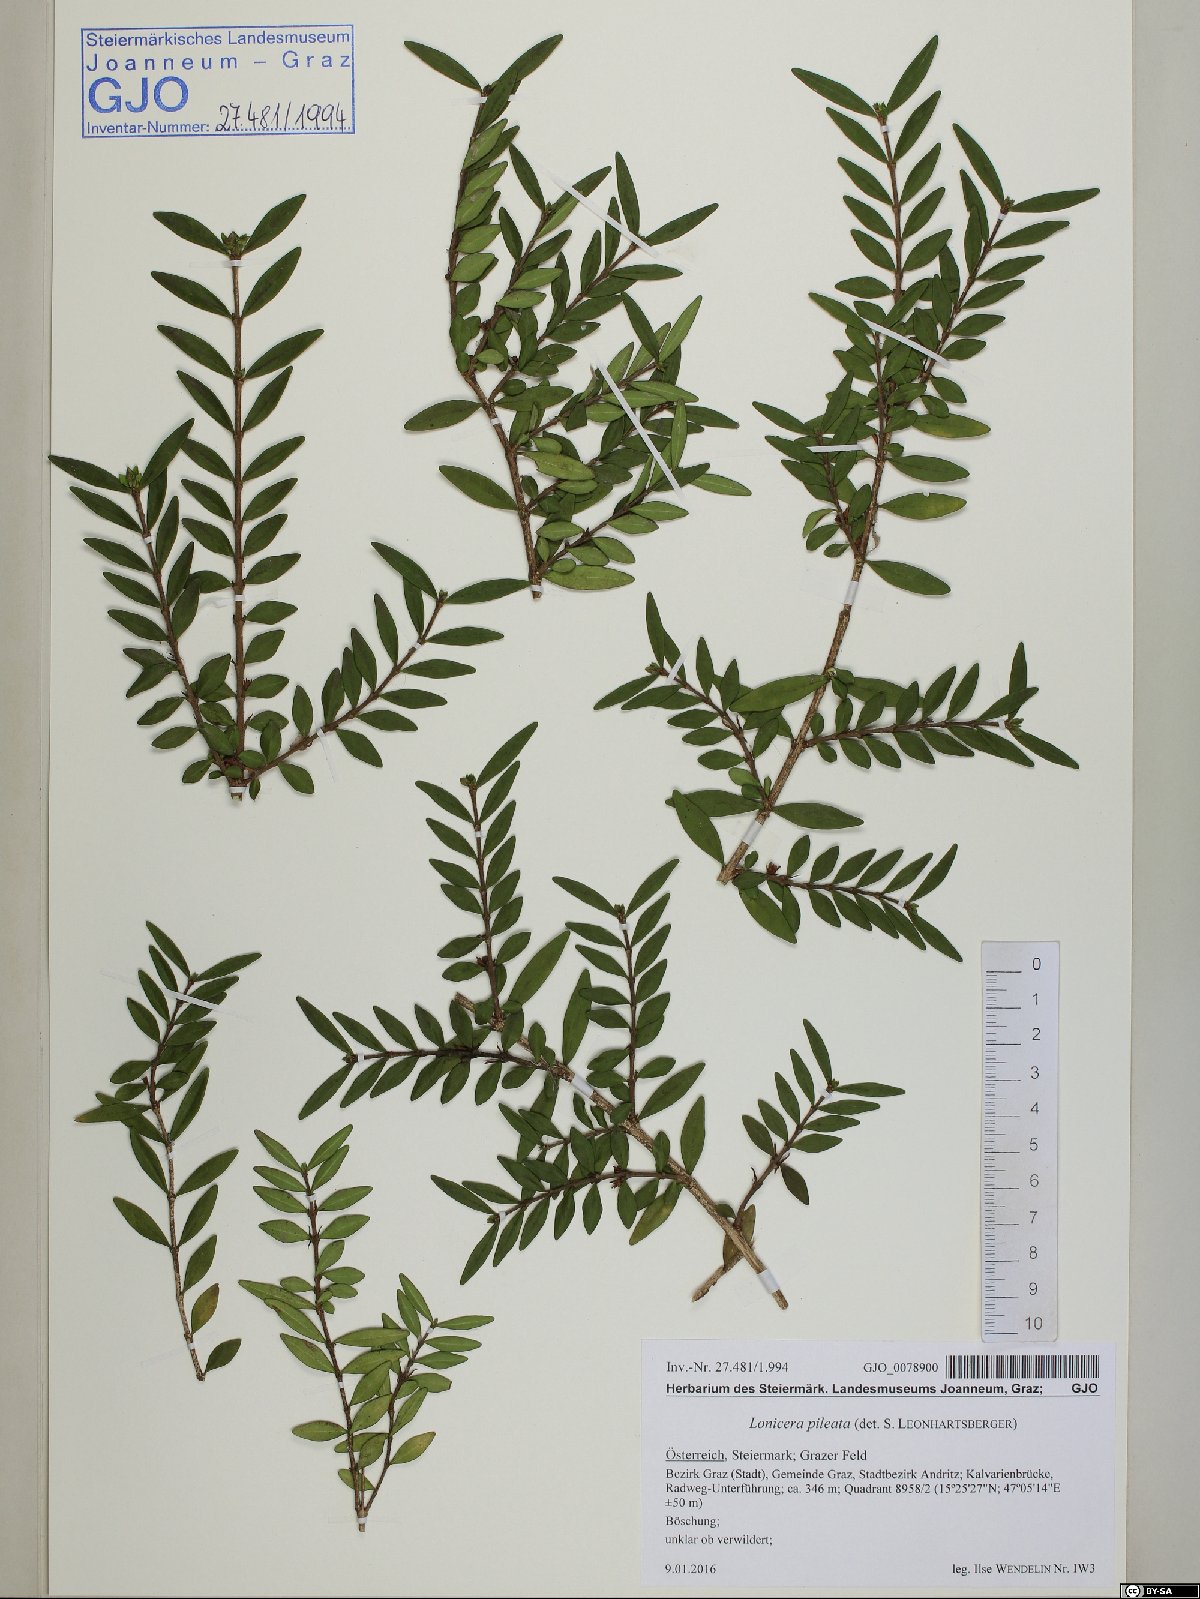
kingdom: Plantae
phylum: Tracheophyta
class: Magnoliopsida
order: Dipsacales
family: Caprifoliaceae
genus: Lonicera
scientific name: Lonicera pileata
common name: Box-leaved honeysuckle
